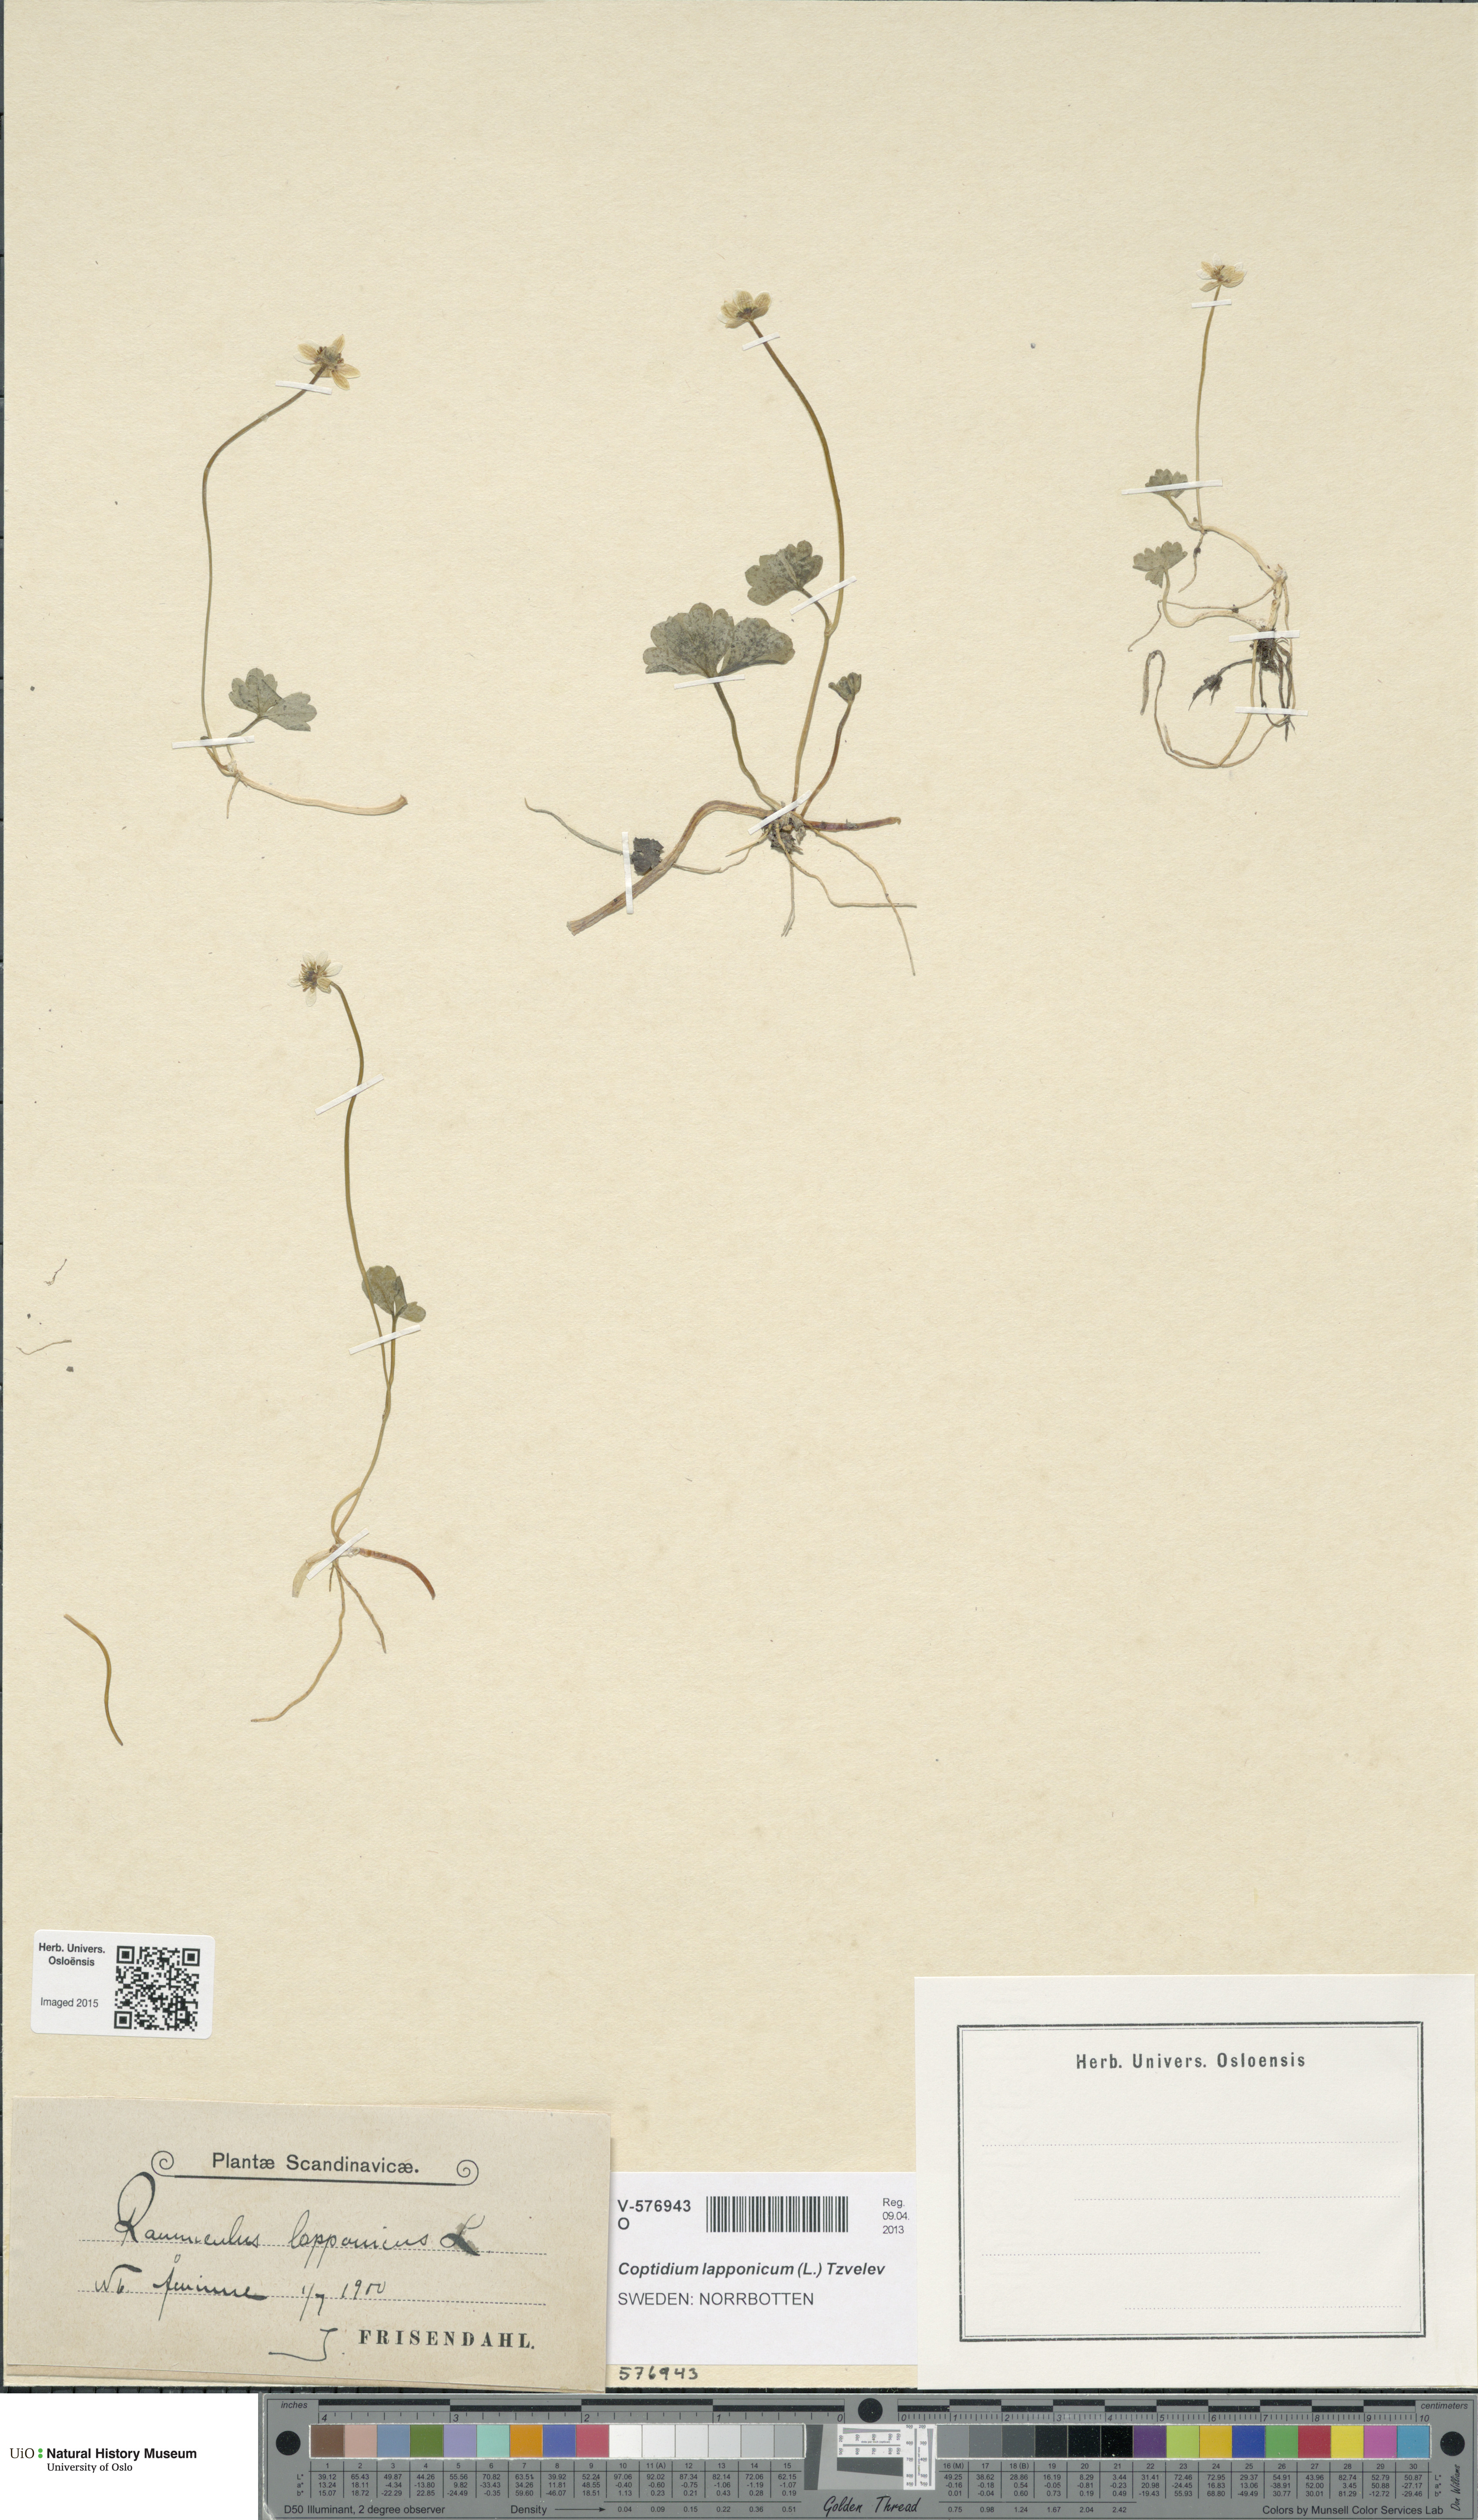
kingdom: Plantae
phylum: Tracheophyta
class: Magnoliopsida
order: Ranunculales
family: Ranunculaceae
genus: Coptidium
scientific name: Coptidium lapponicum
